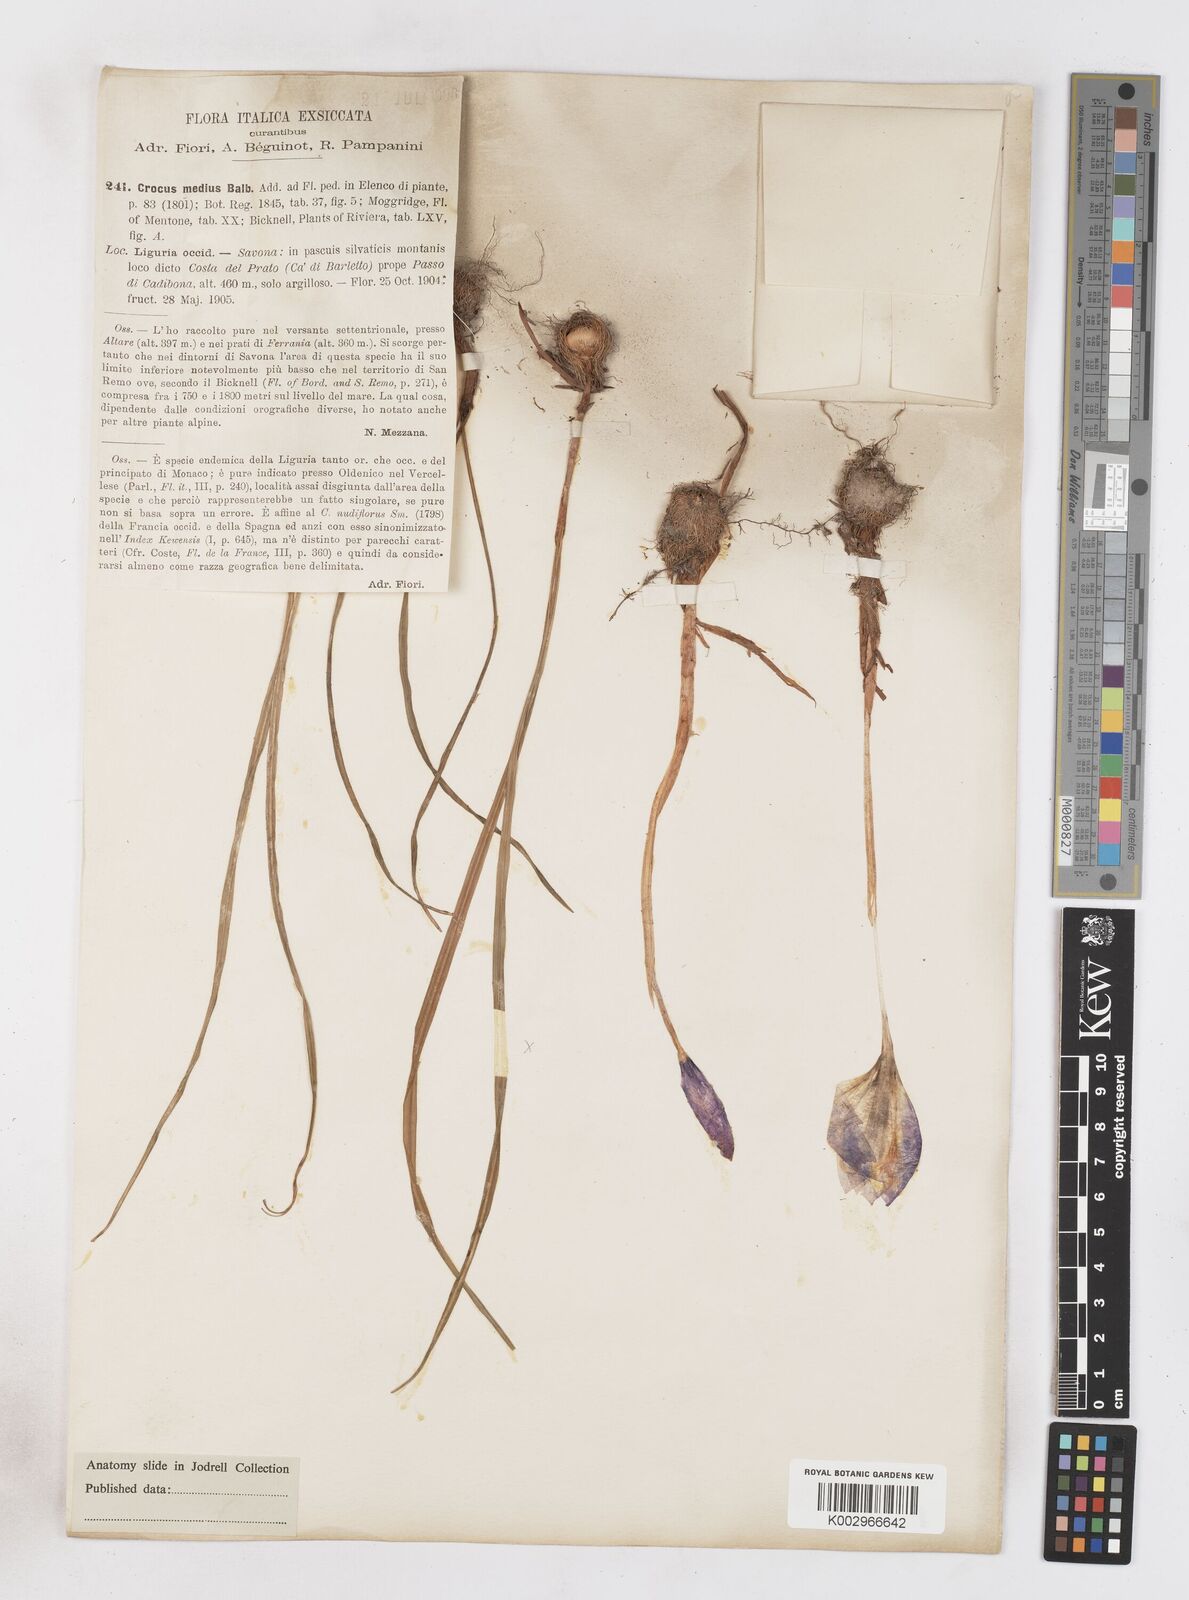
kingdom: Plantae
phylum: Tracheophyta
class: Liliopsida
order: Asparagales
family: Iridaceae
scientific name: Iridaceae
